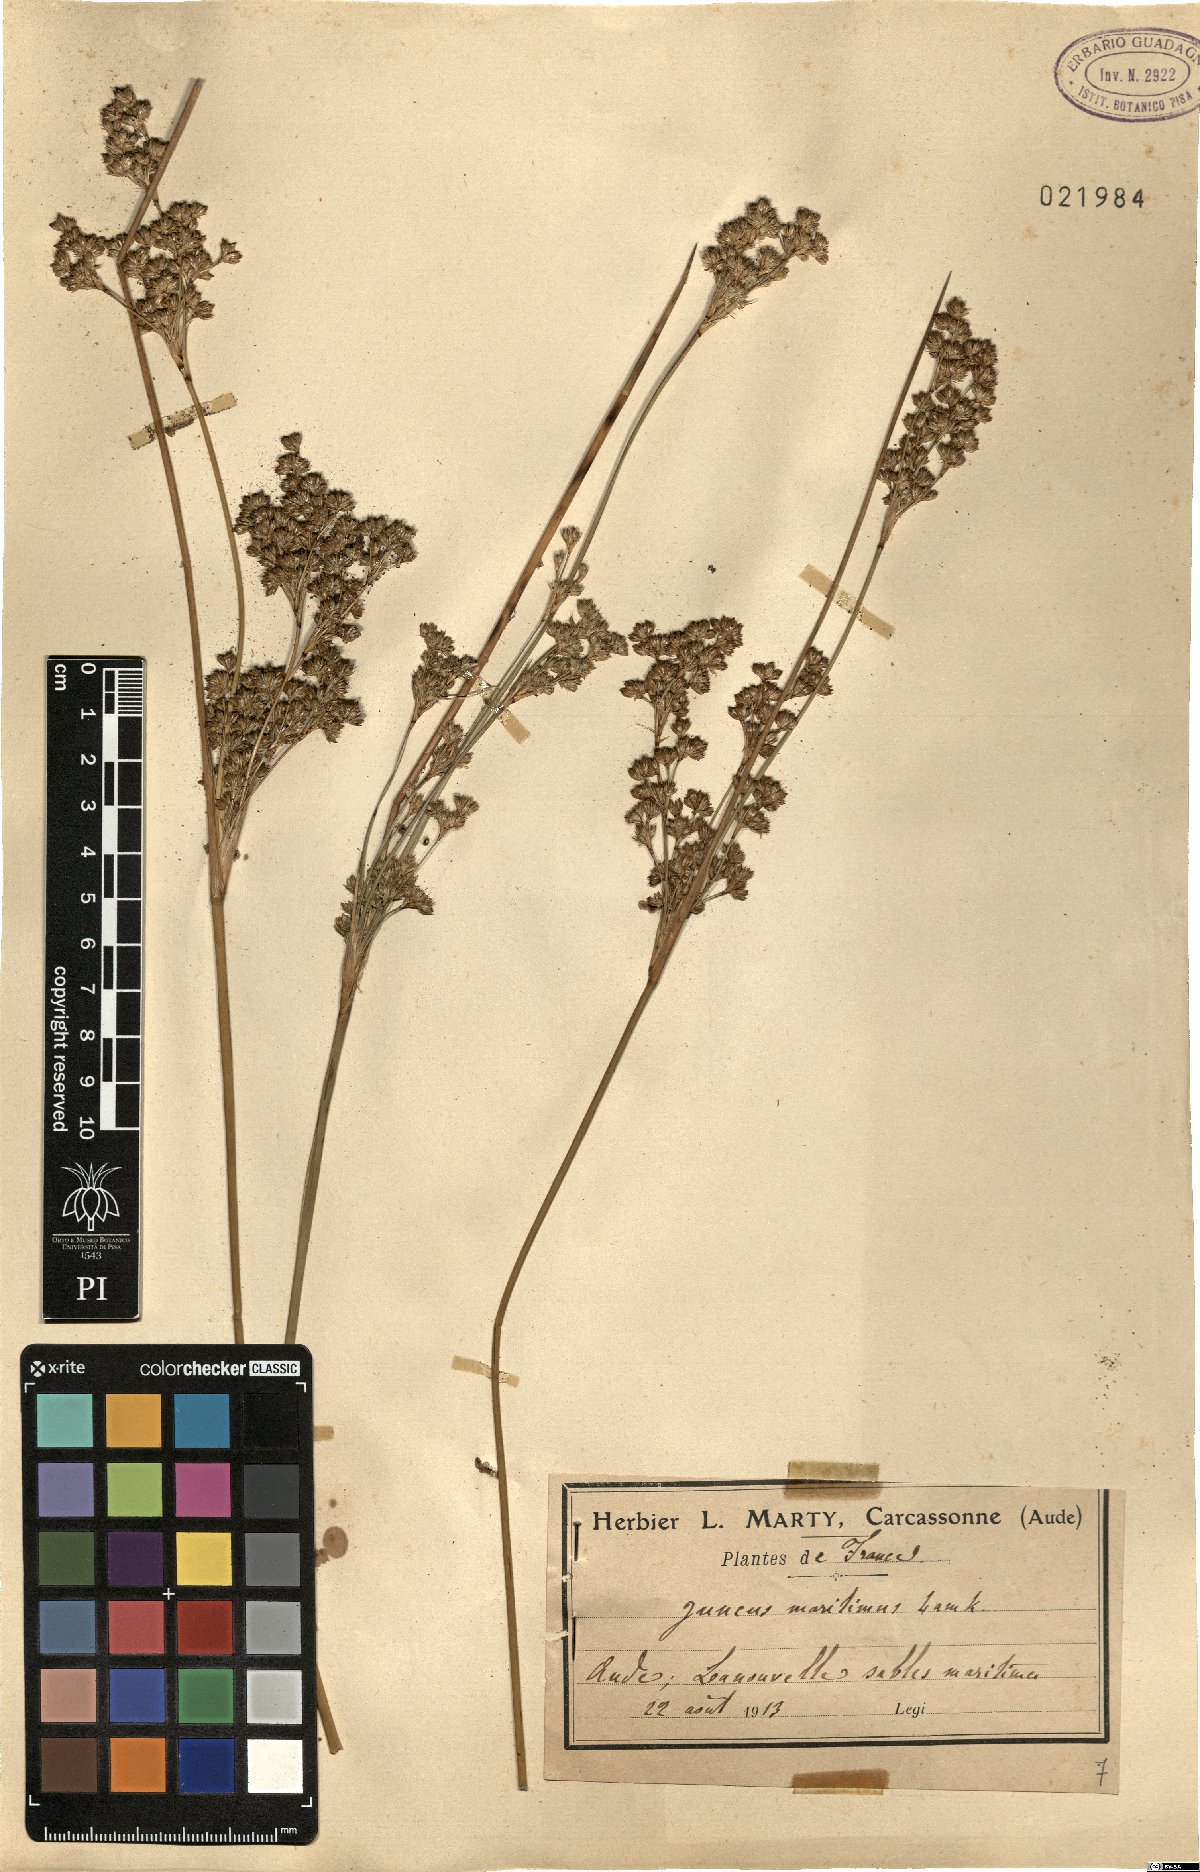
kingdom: Plantae
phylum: Tracheophyta
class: Liliopsida
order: Poales
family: Juncaceae
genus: Juncus
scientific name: Juncus maritimus
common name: Sea rush
